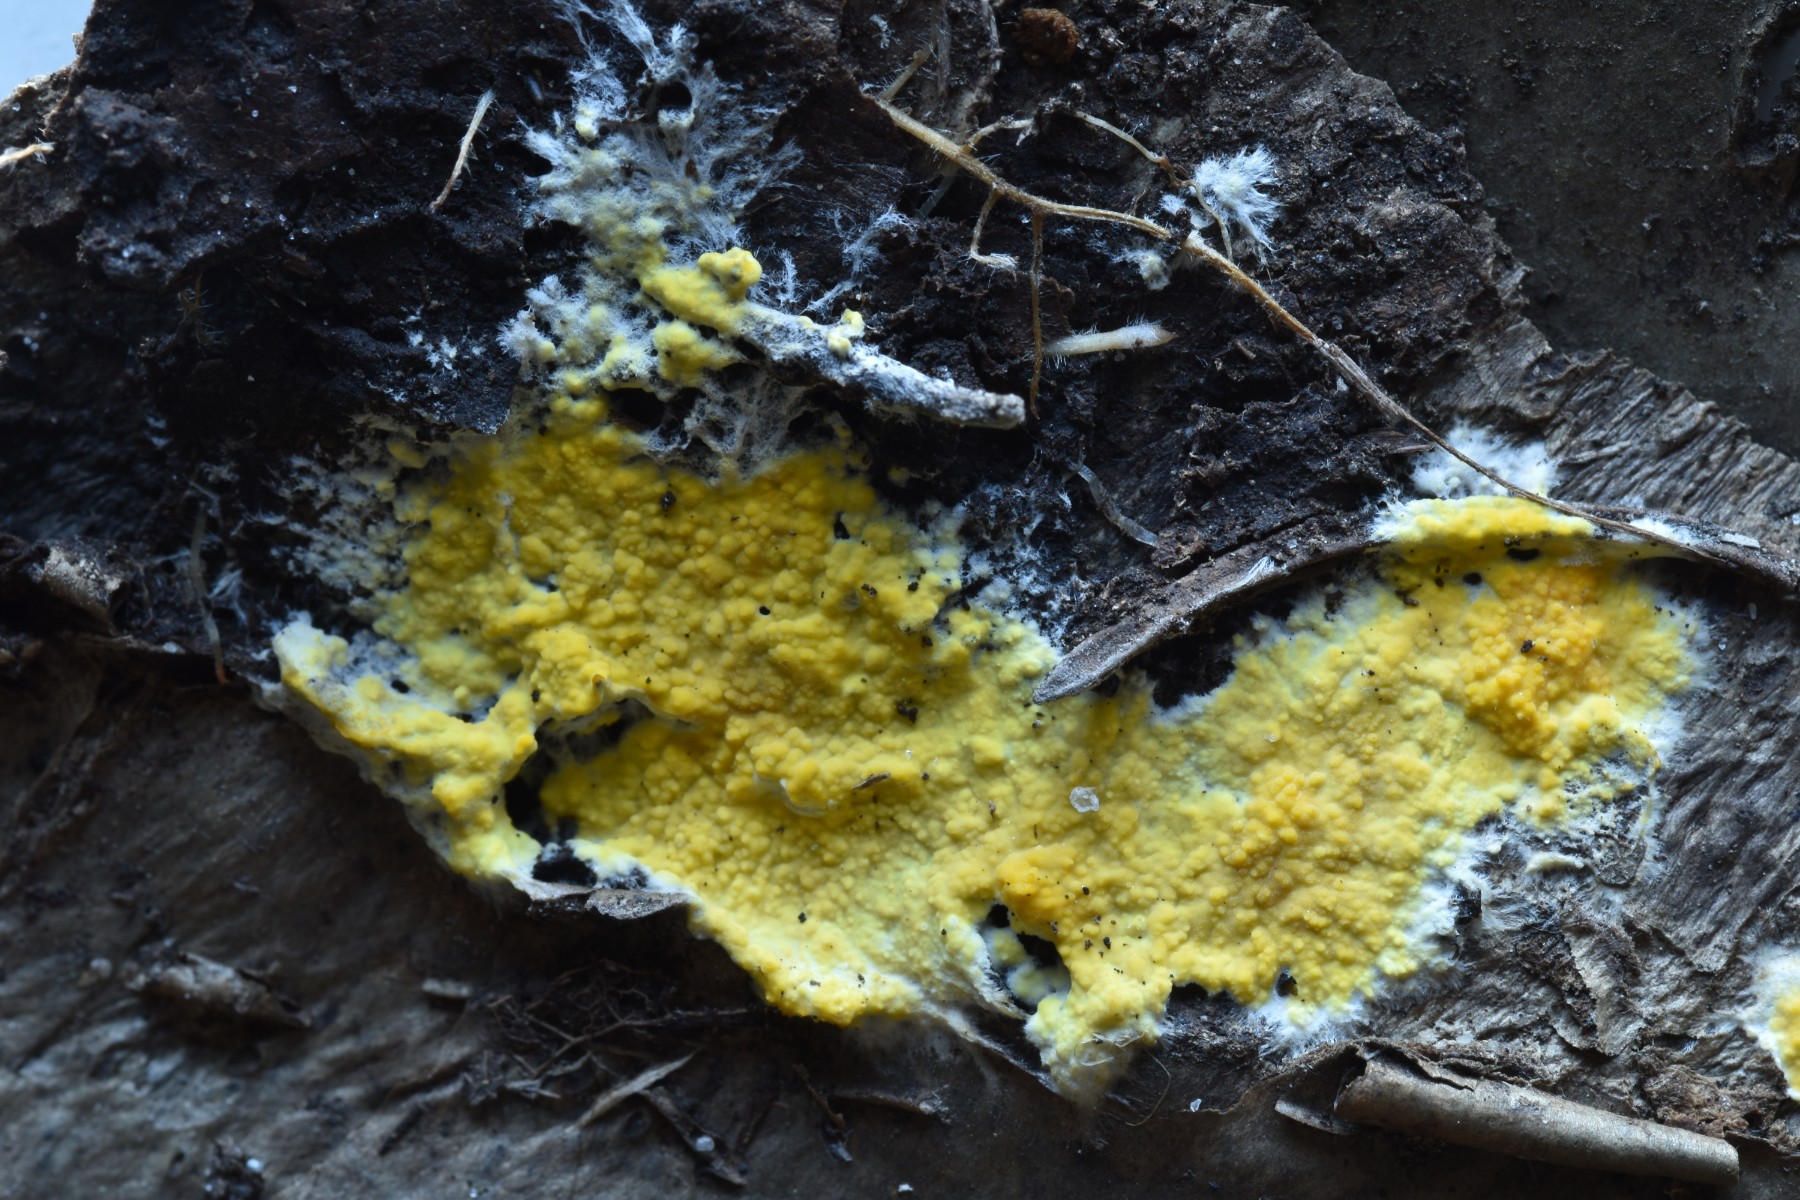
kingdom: Fungi
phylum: Basidiomycota
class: Agaricomycetes
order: Polyporales
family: Meruliaceae
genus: Phlebiodontia
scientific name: Phlebiodontia subochracea
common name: svovl-åresvamp
